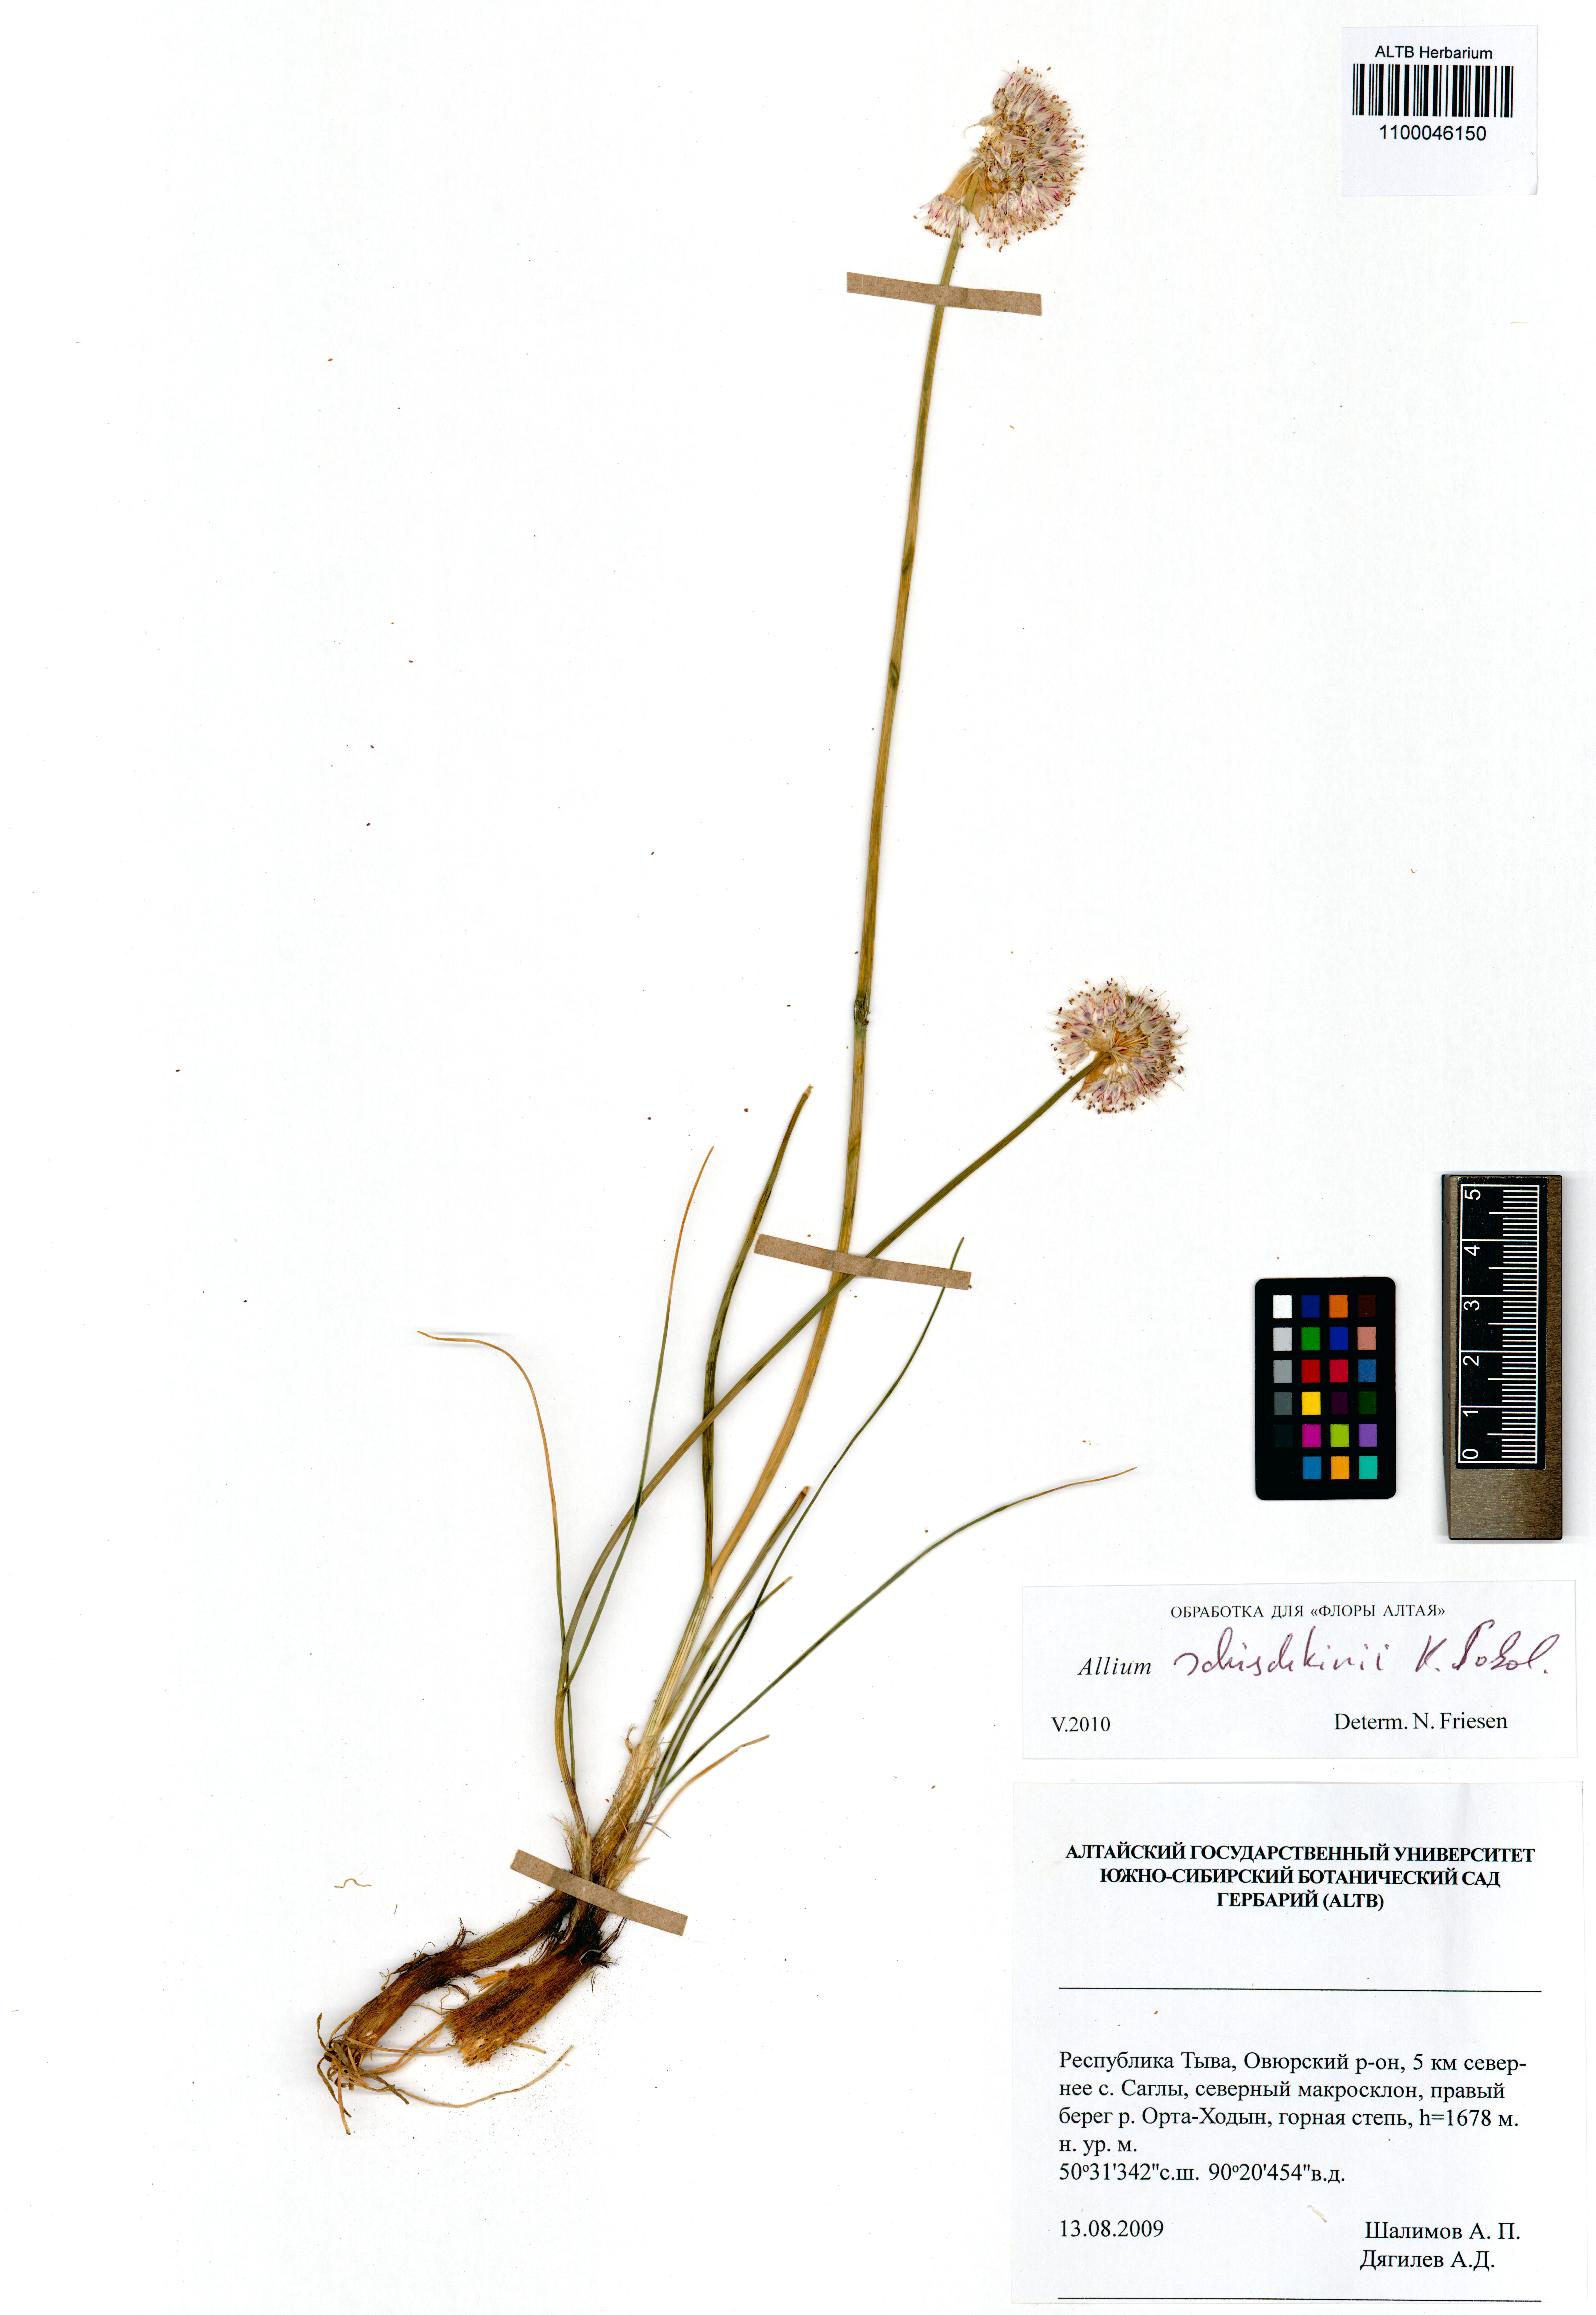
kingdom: Plantae
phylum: Tracheophyta
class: Liliopsida
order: Asparagales
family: Amaryllidaceae
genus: Allium
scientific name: Allium schischkinii
